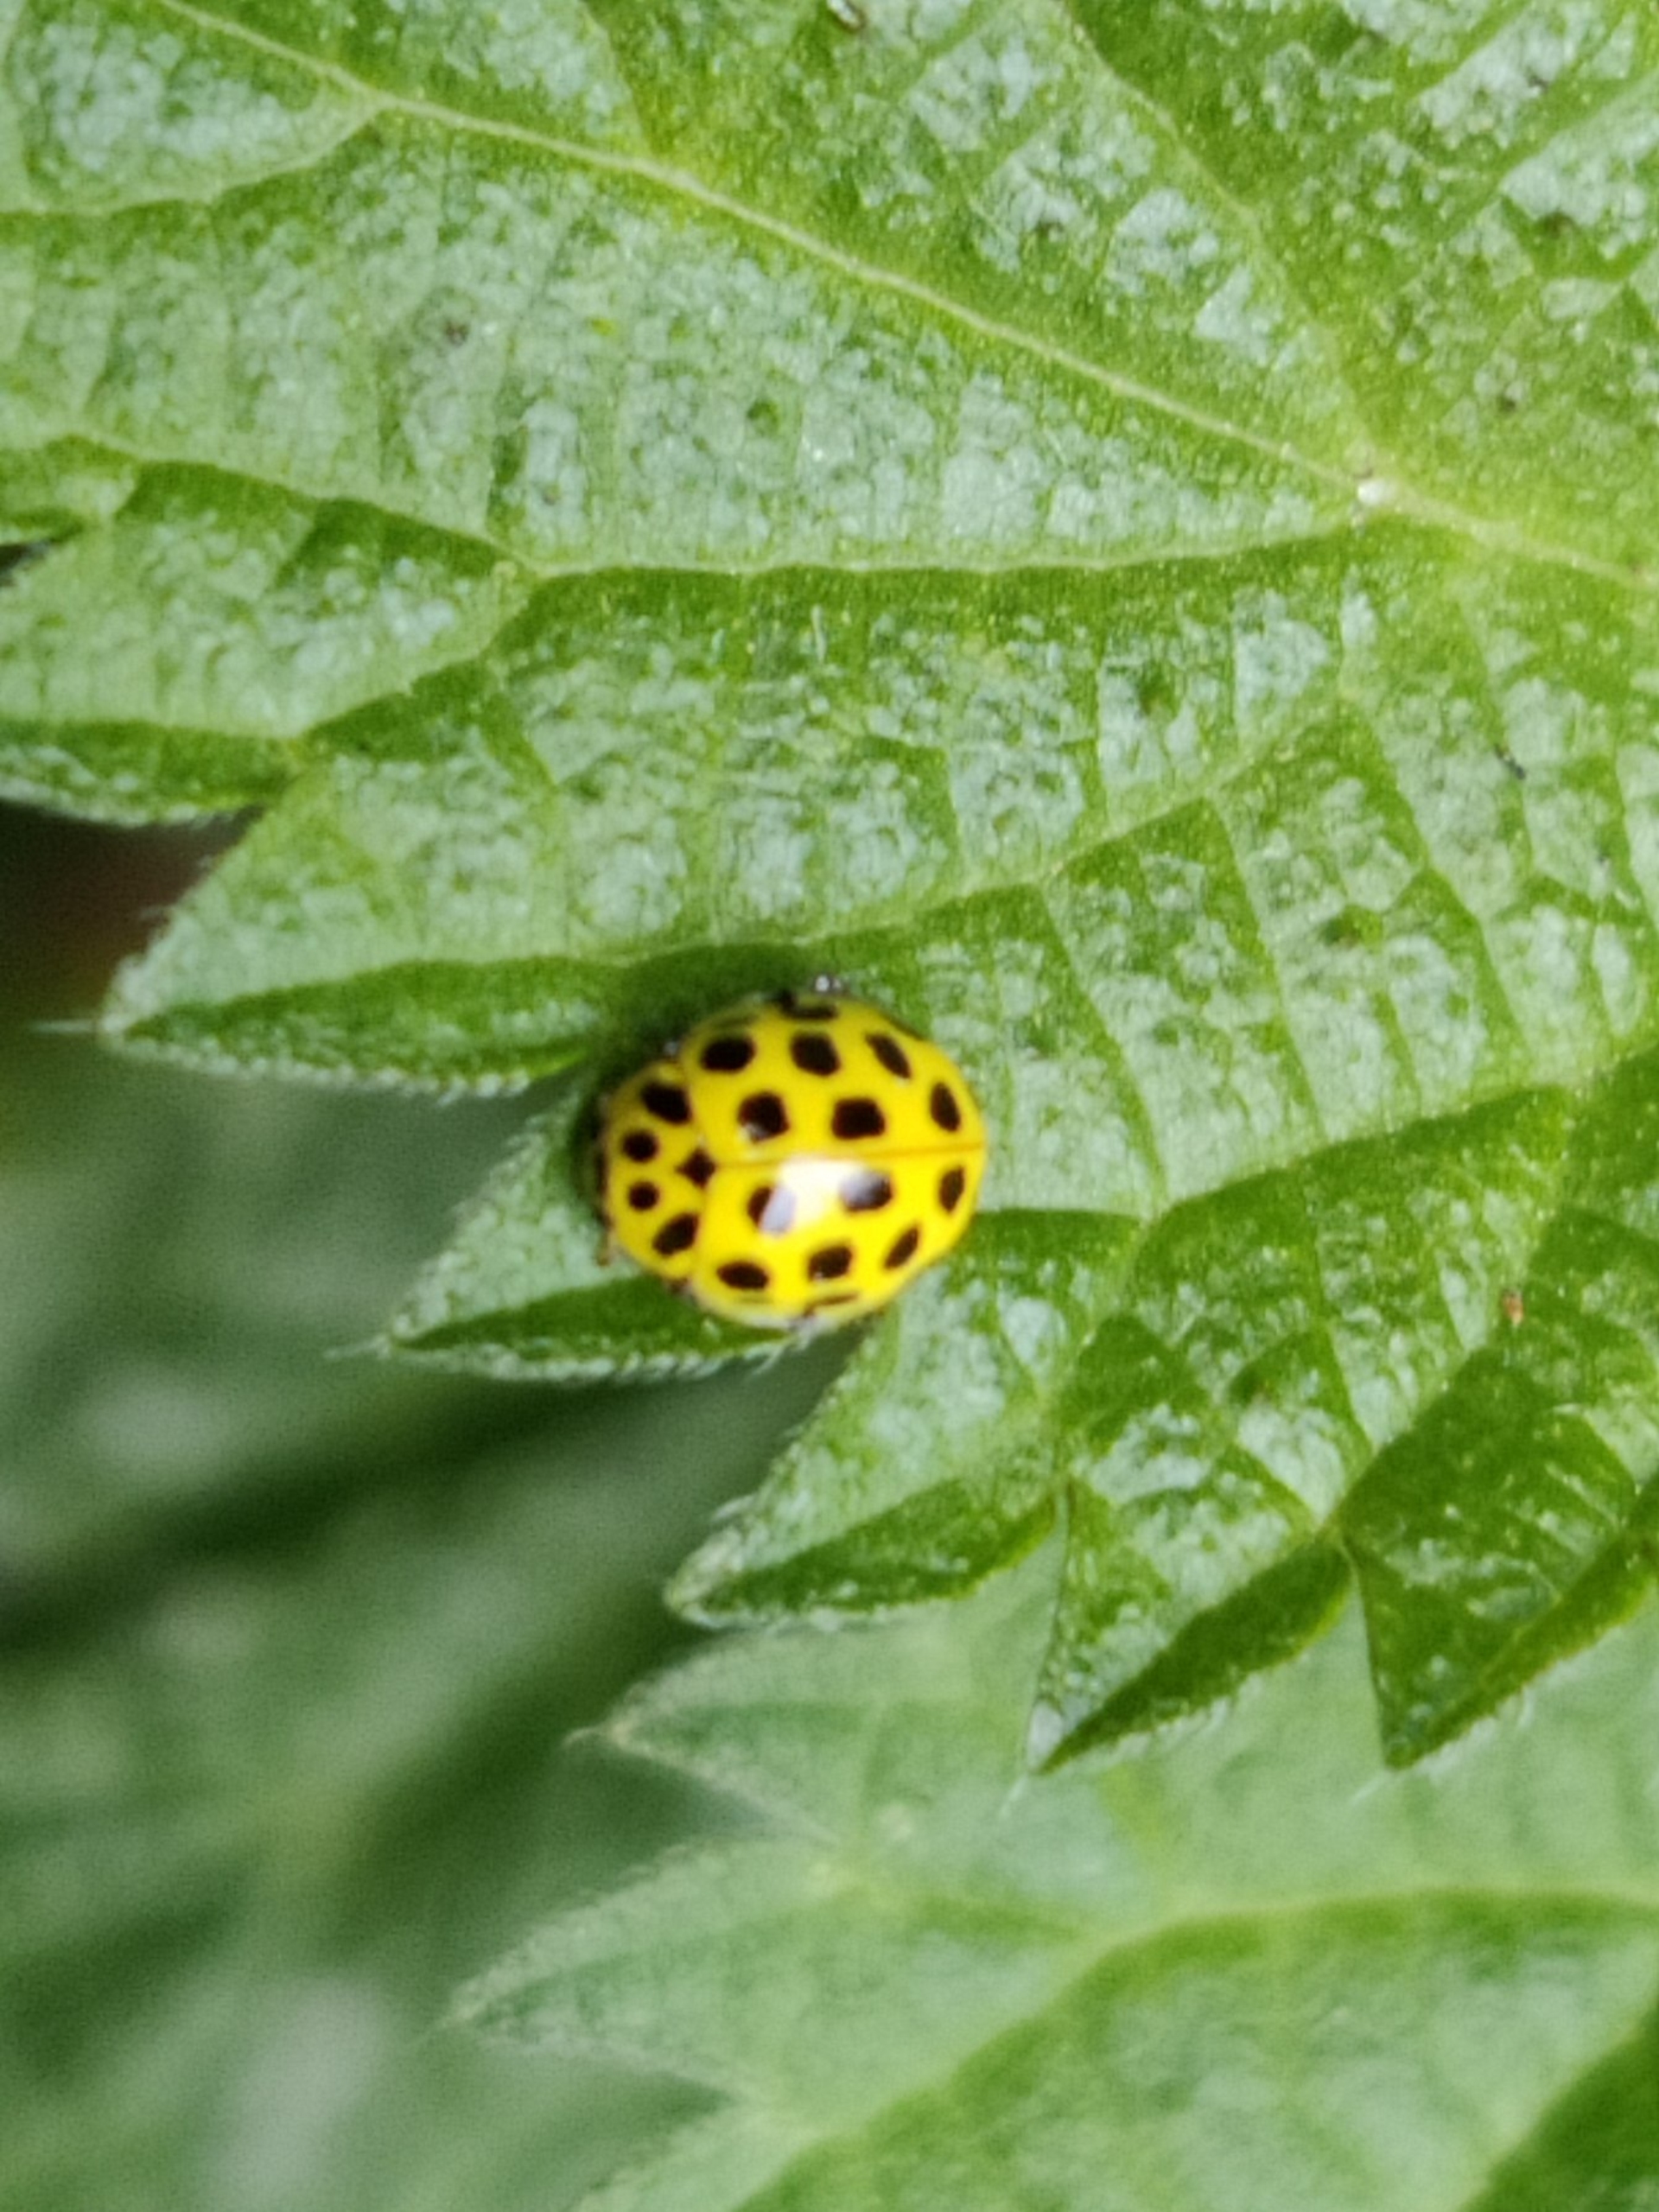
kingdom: Animalia
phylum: Arthropoda
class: Insecta
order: Coleoptera
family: Coccinellidae
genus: Psyllobora
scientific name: Psyllobora vigintiduopunctata
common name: Toogtyveplettet mariehøne
